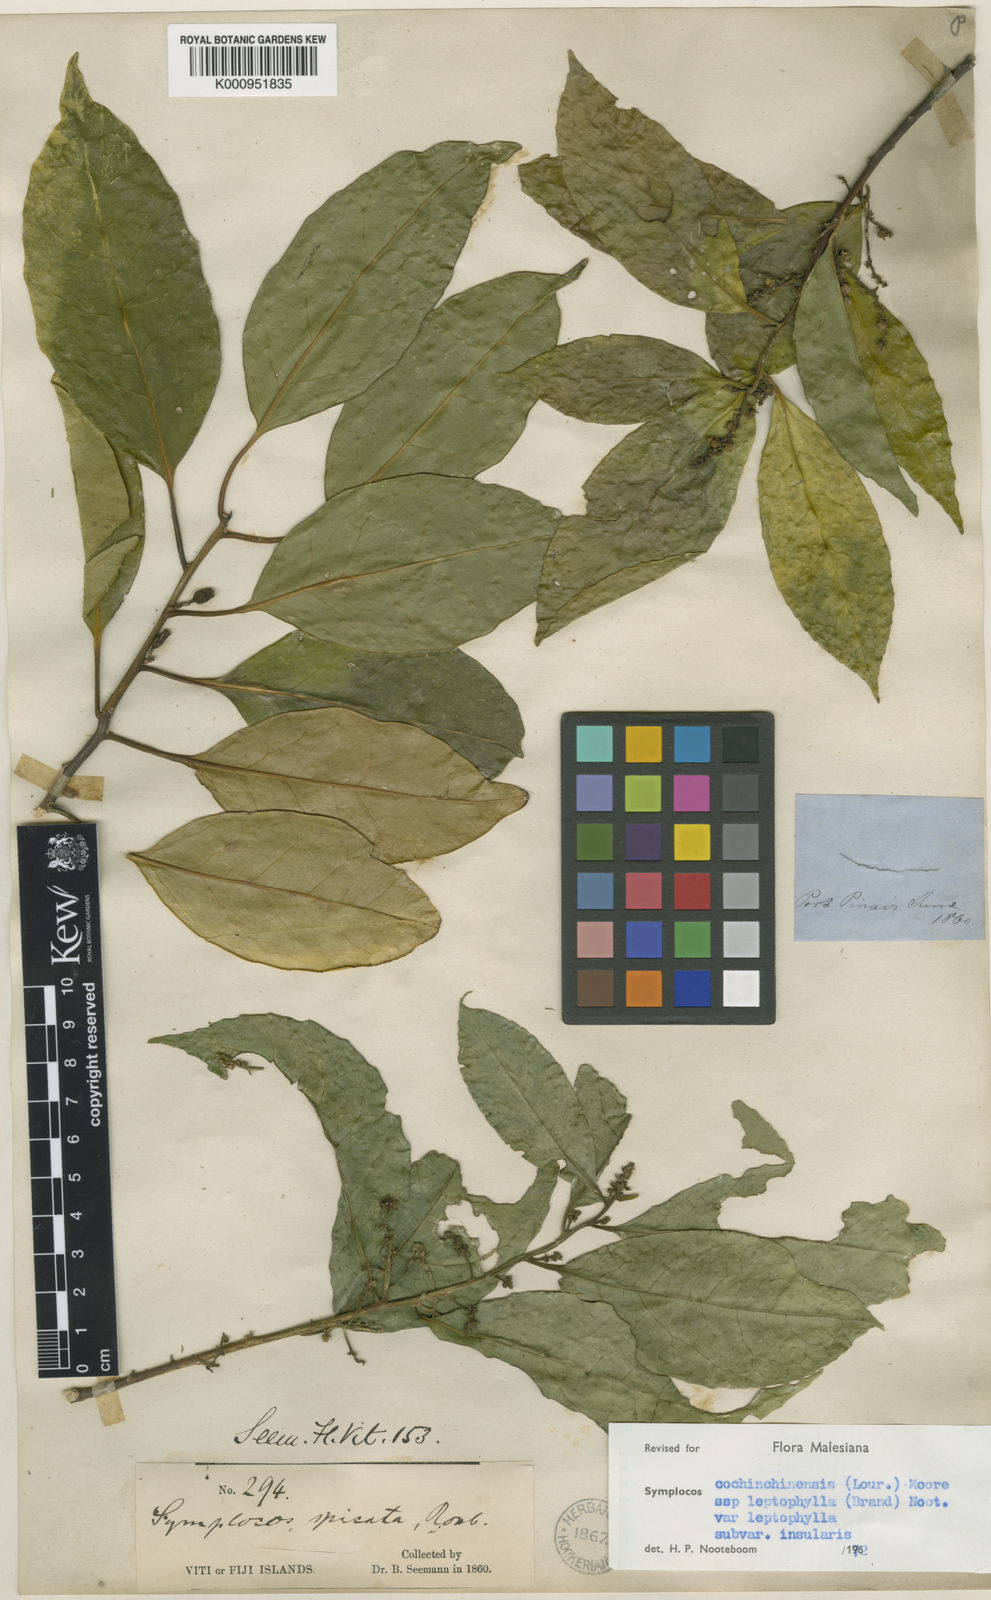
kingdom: Plantae
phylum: Tracheophyta
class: Magnoliopsida
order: Ericales
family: Symplocaceae
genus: Symplocos
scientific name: Symplocos leptophylla
